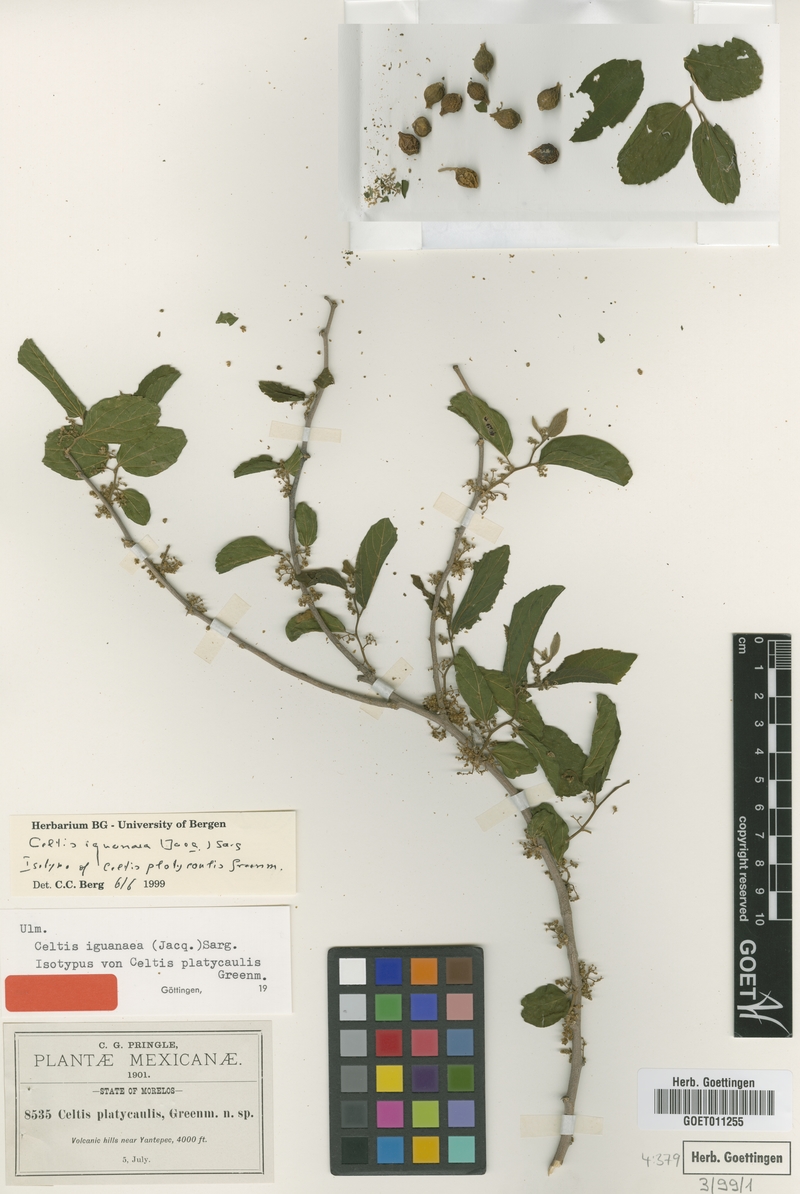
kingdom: Plantae
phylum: Tracheophyta
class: Magnoliopsida
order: Rosales
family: Cannabaceae
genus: Celtis
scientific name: Celtis iguanaea
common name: Iguana hackberry
